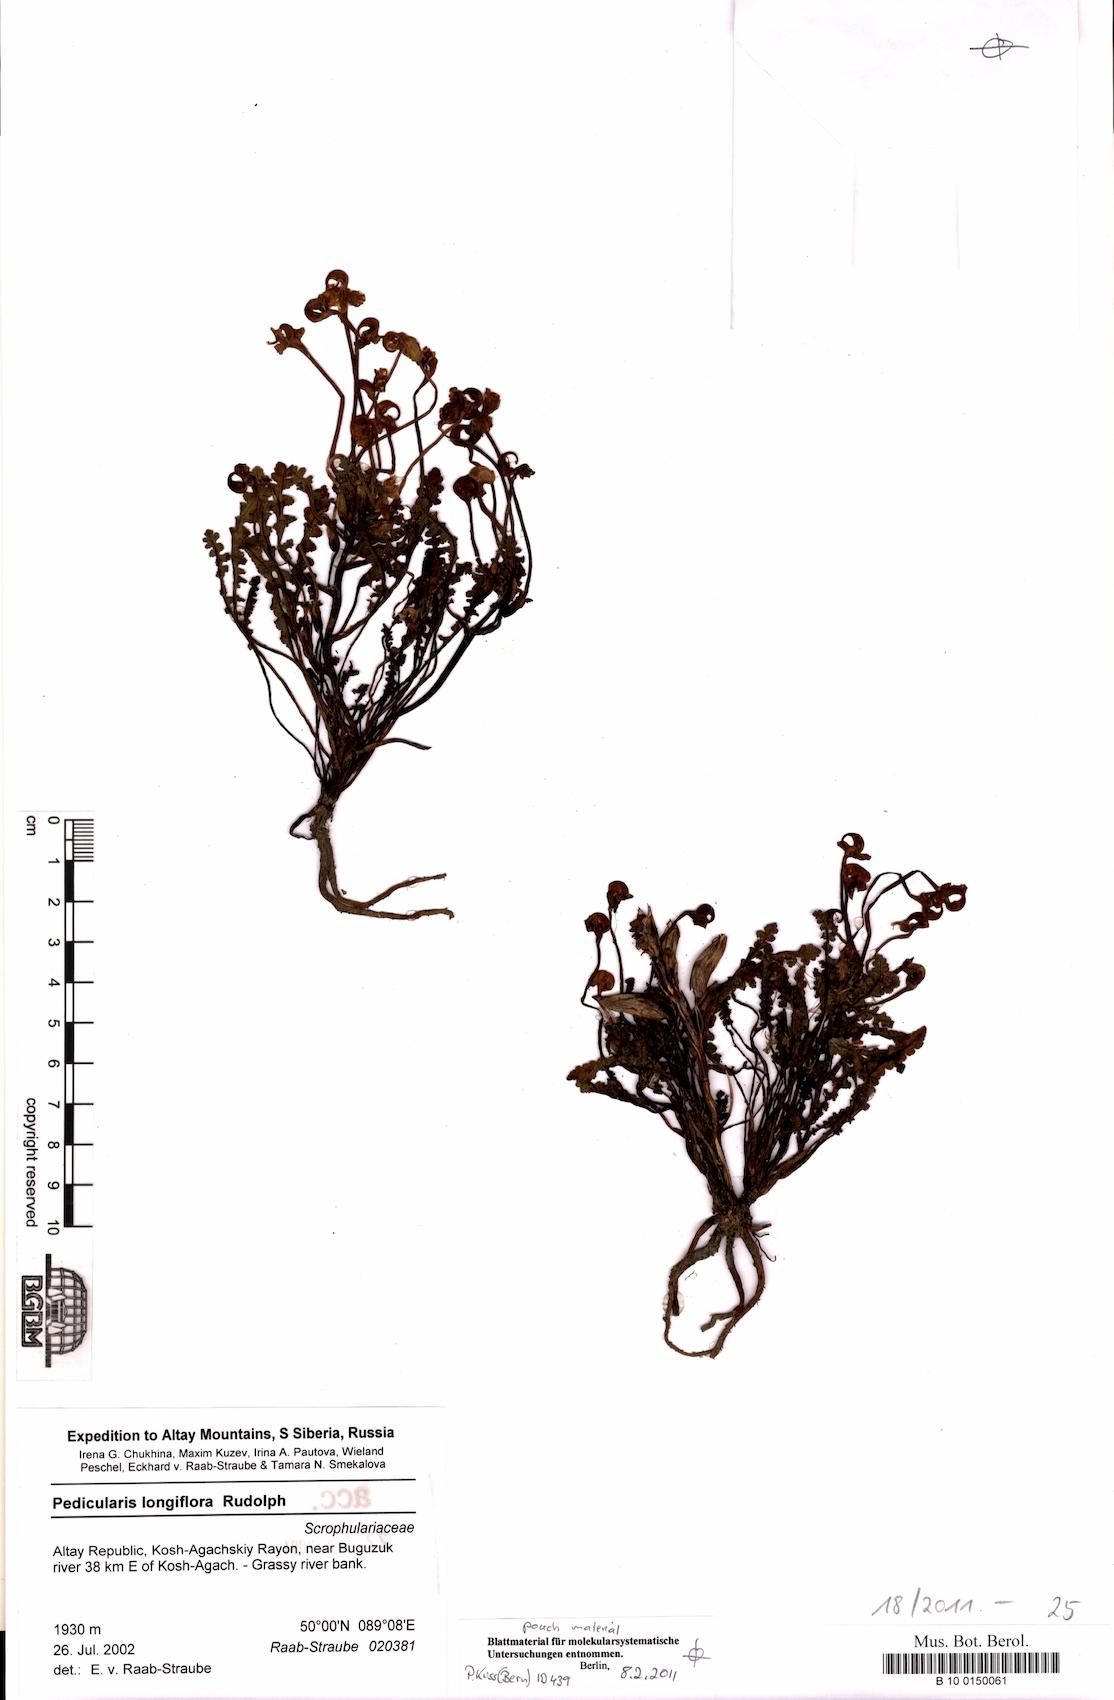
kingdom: Plantae
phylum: Tracheophyta
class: Magnoliopsida
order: Lamiales
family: Orobanchaceae
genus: Pedicularis
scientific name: Pedicularis longiflora
